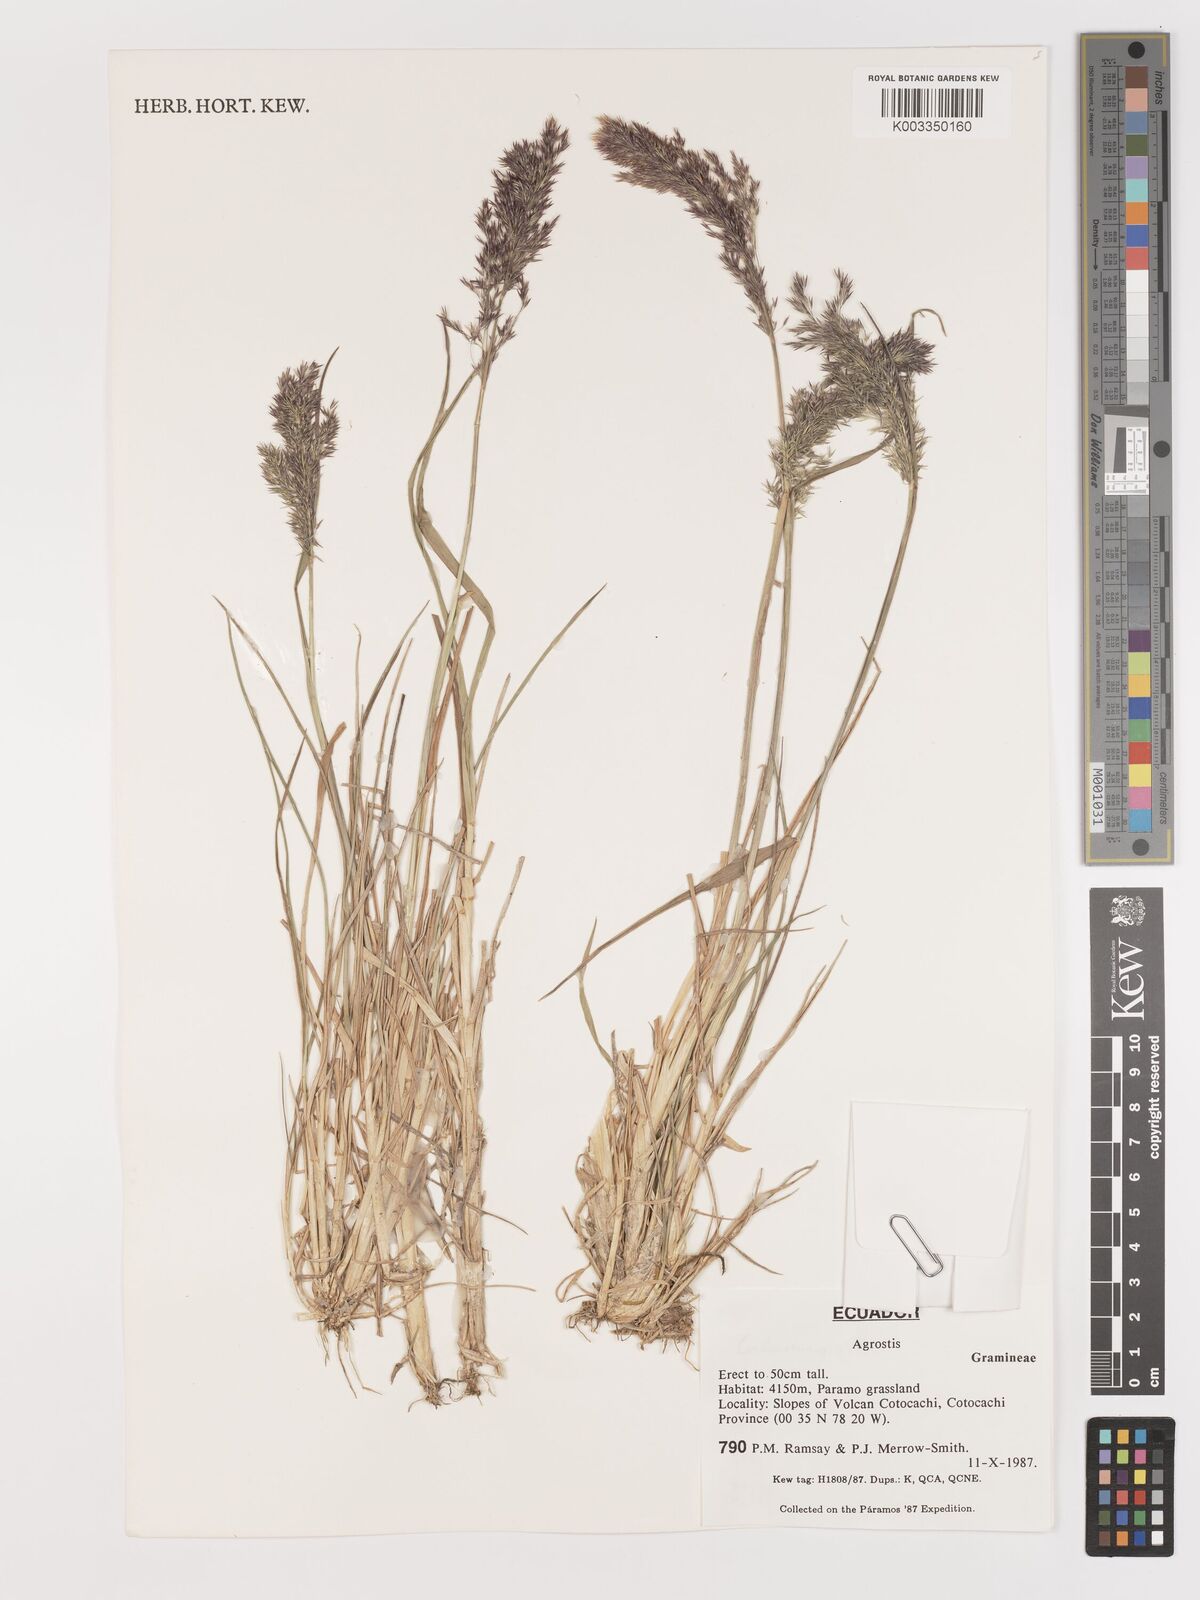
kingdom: Plantae
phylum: Tracheophyta
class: Liliopsida
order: Poales
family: Poaceae
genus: Agrostis
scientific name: Agrostis
